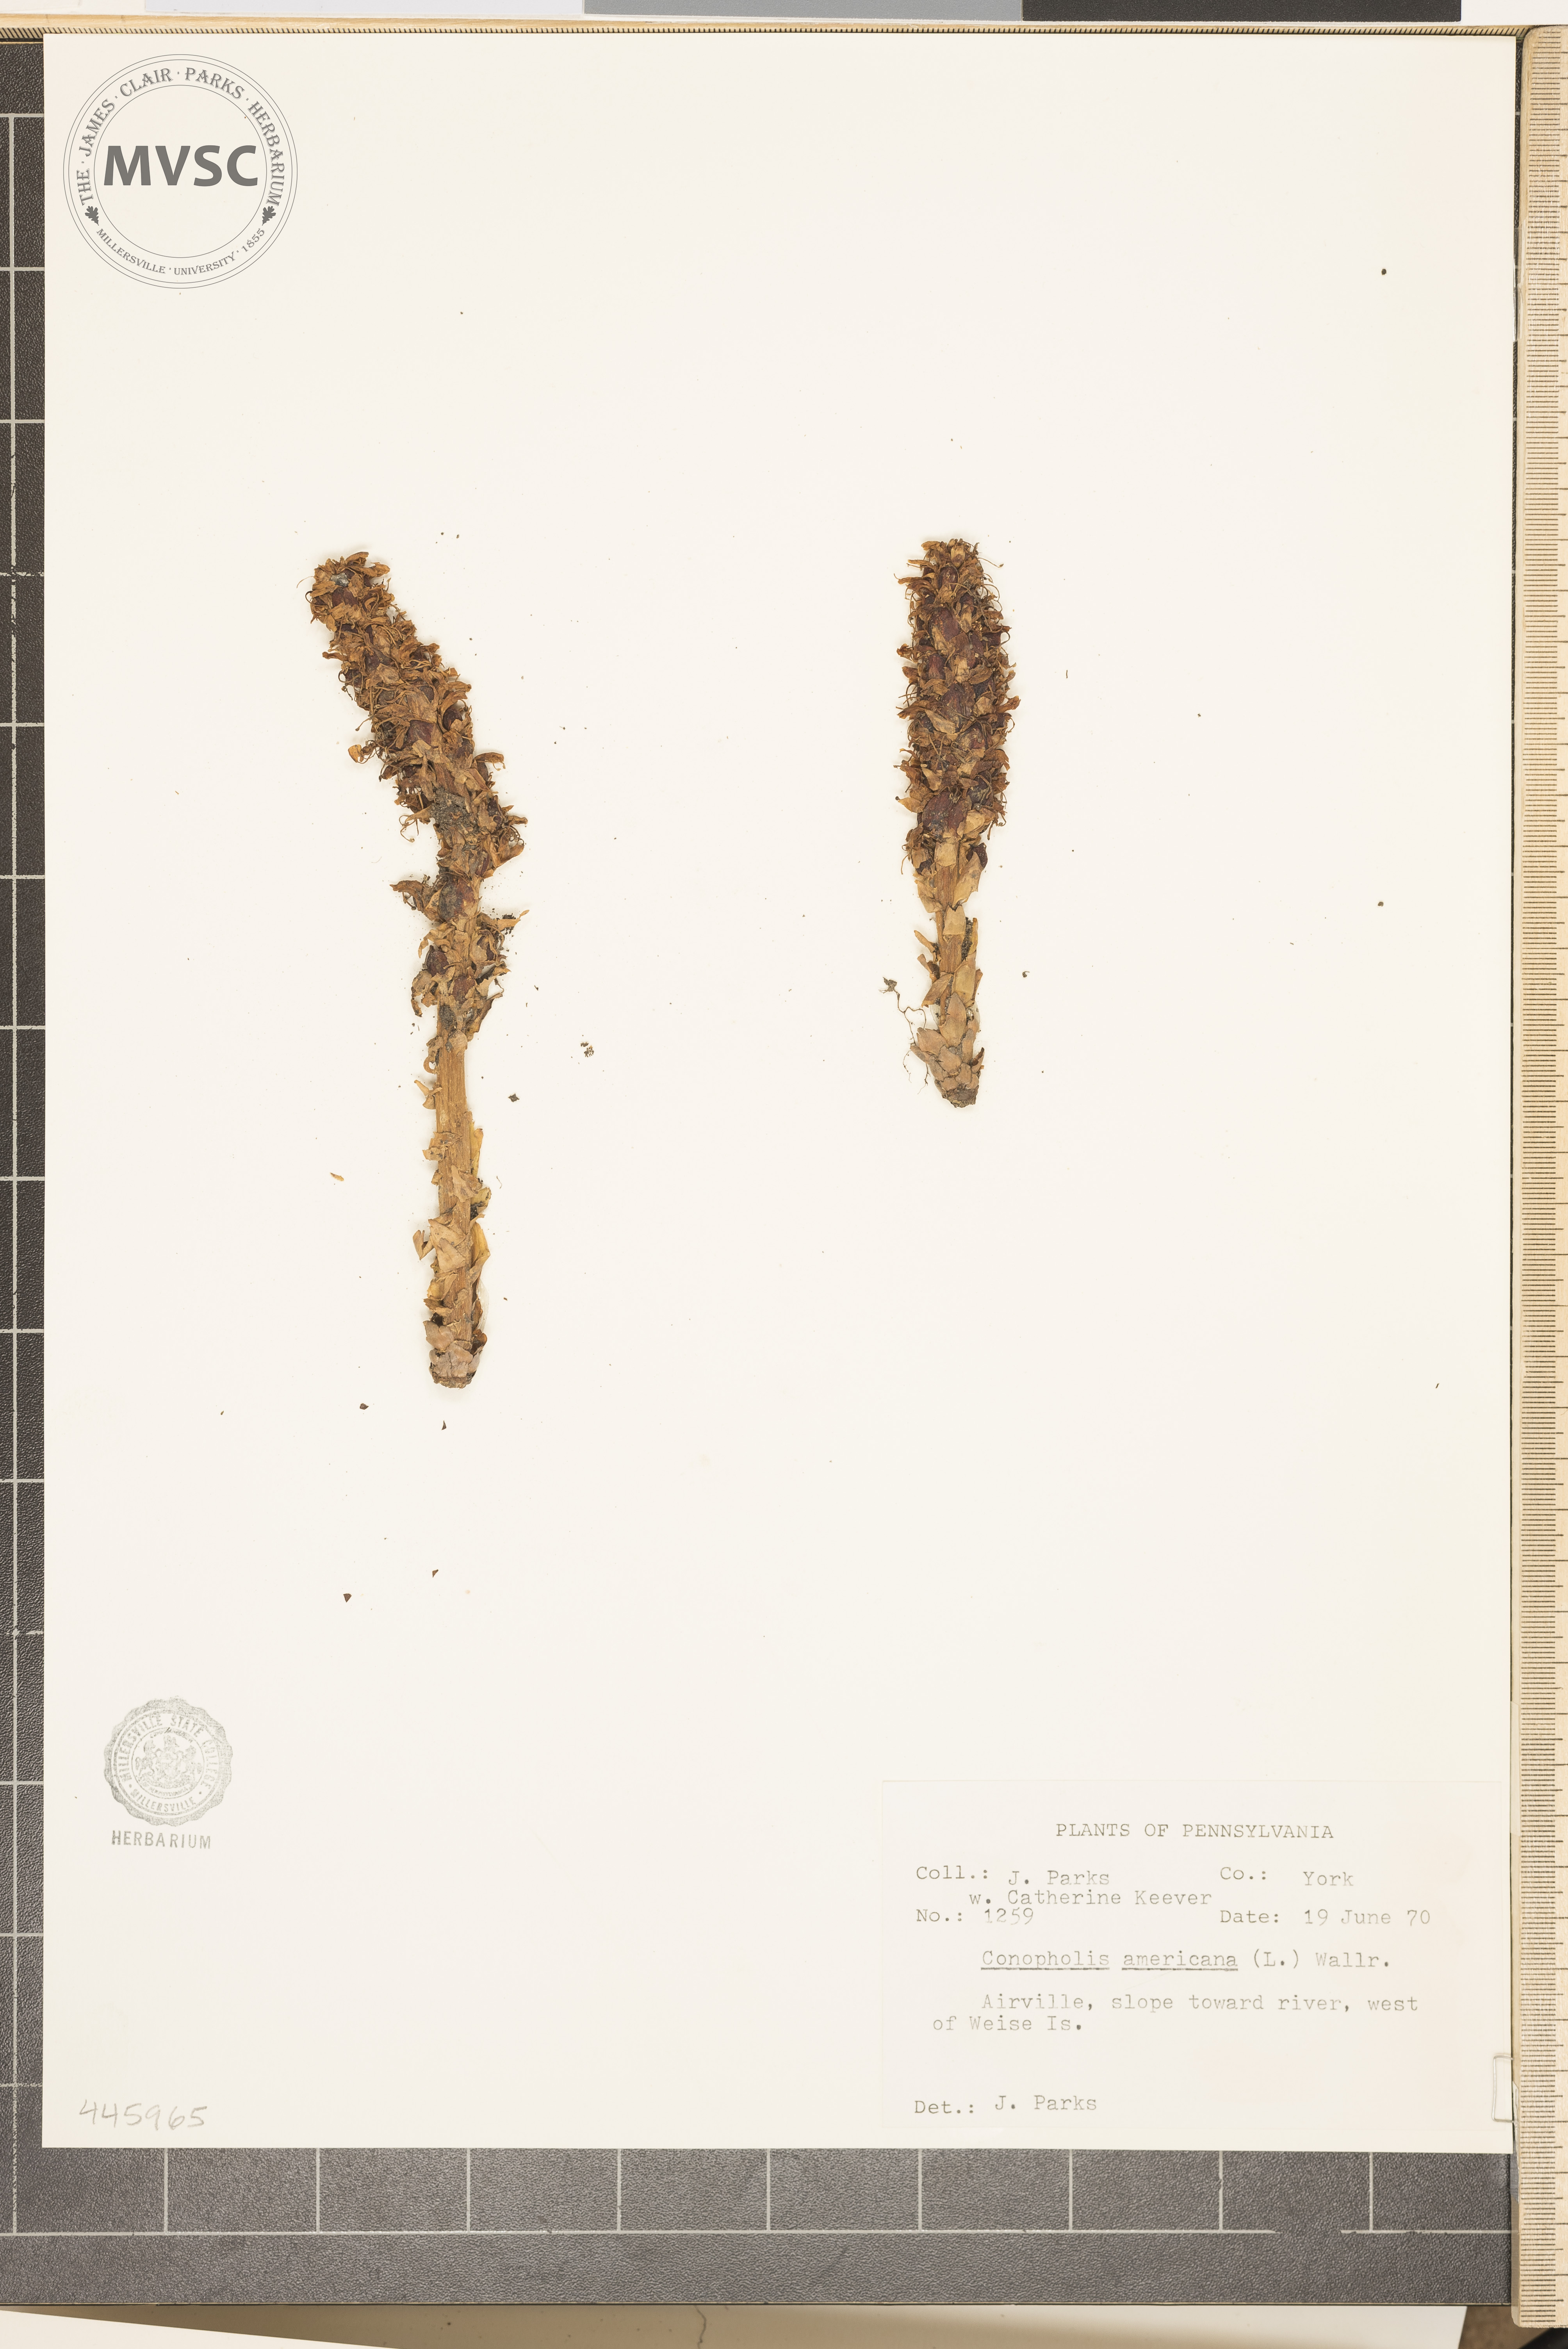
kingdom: Plantae
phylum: Tracheophyta
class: Magnoliopsida
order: Lamiales
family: Orobanchaceae
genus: Conopholis
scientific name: Conopholis americana
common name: American cancer-root
